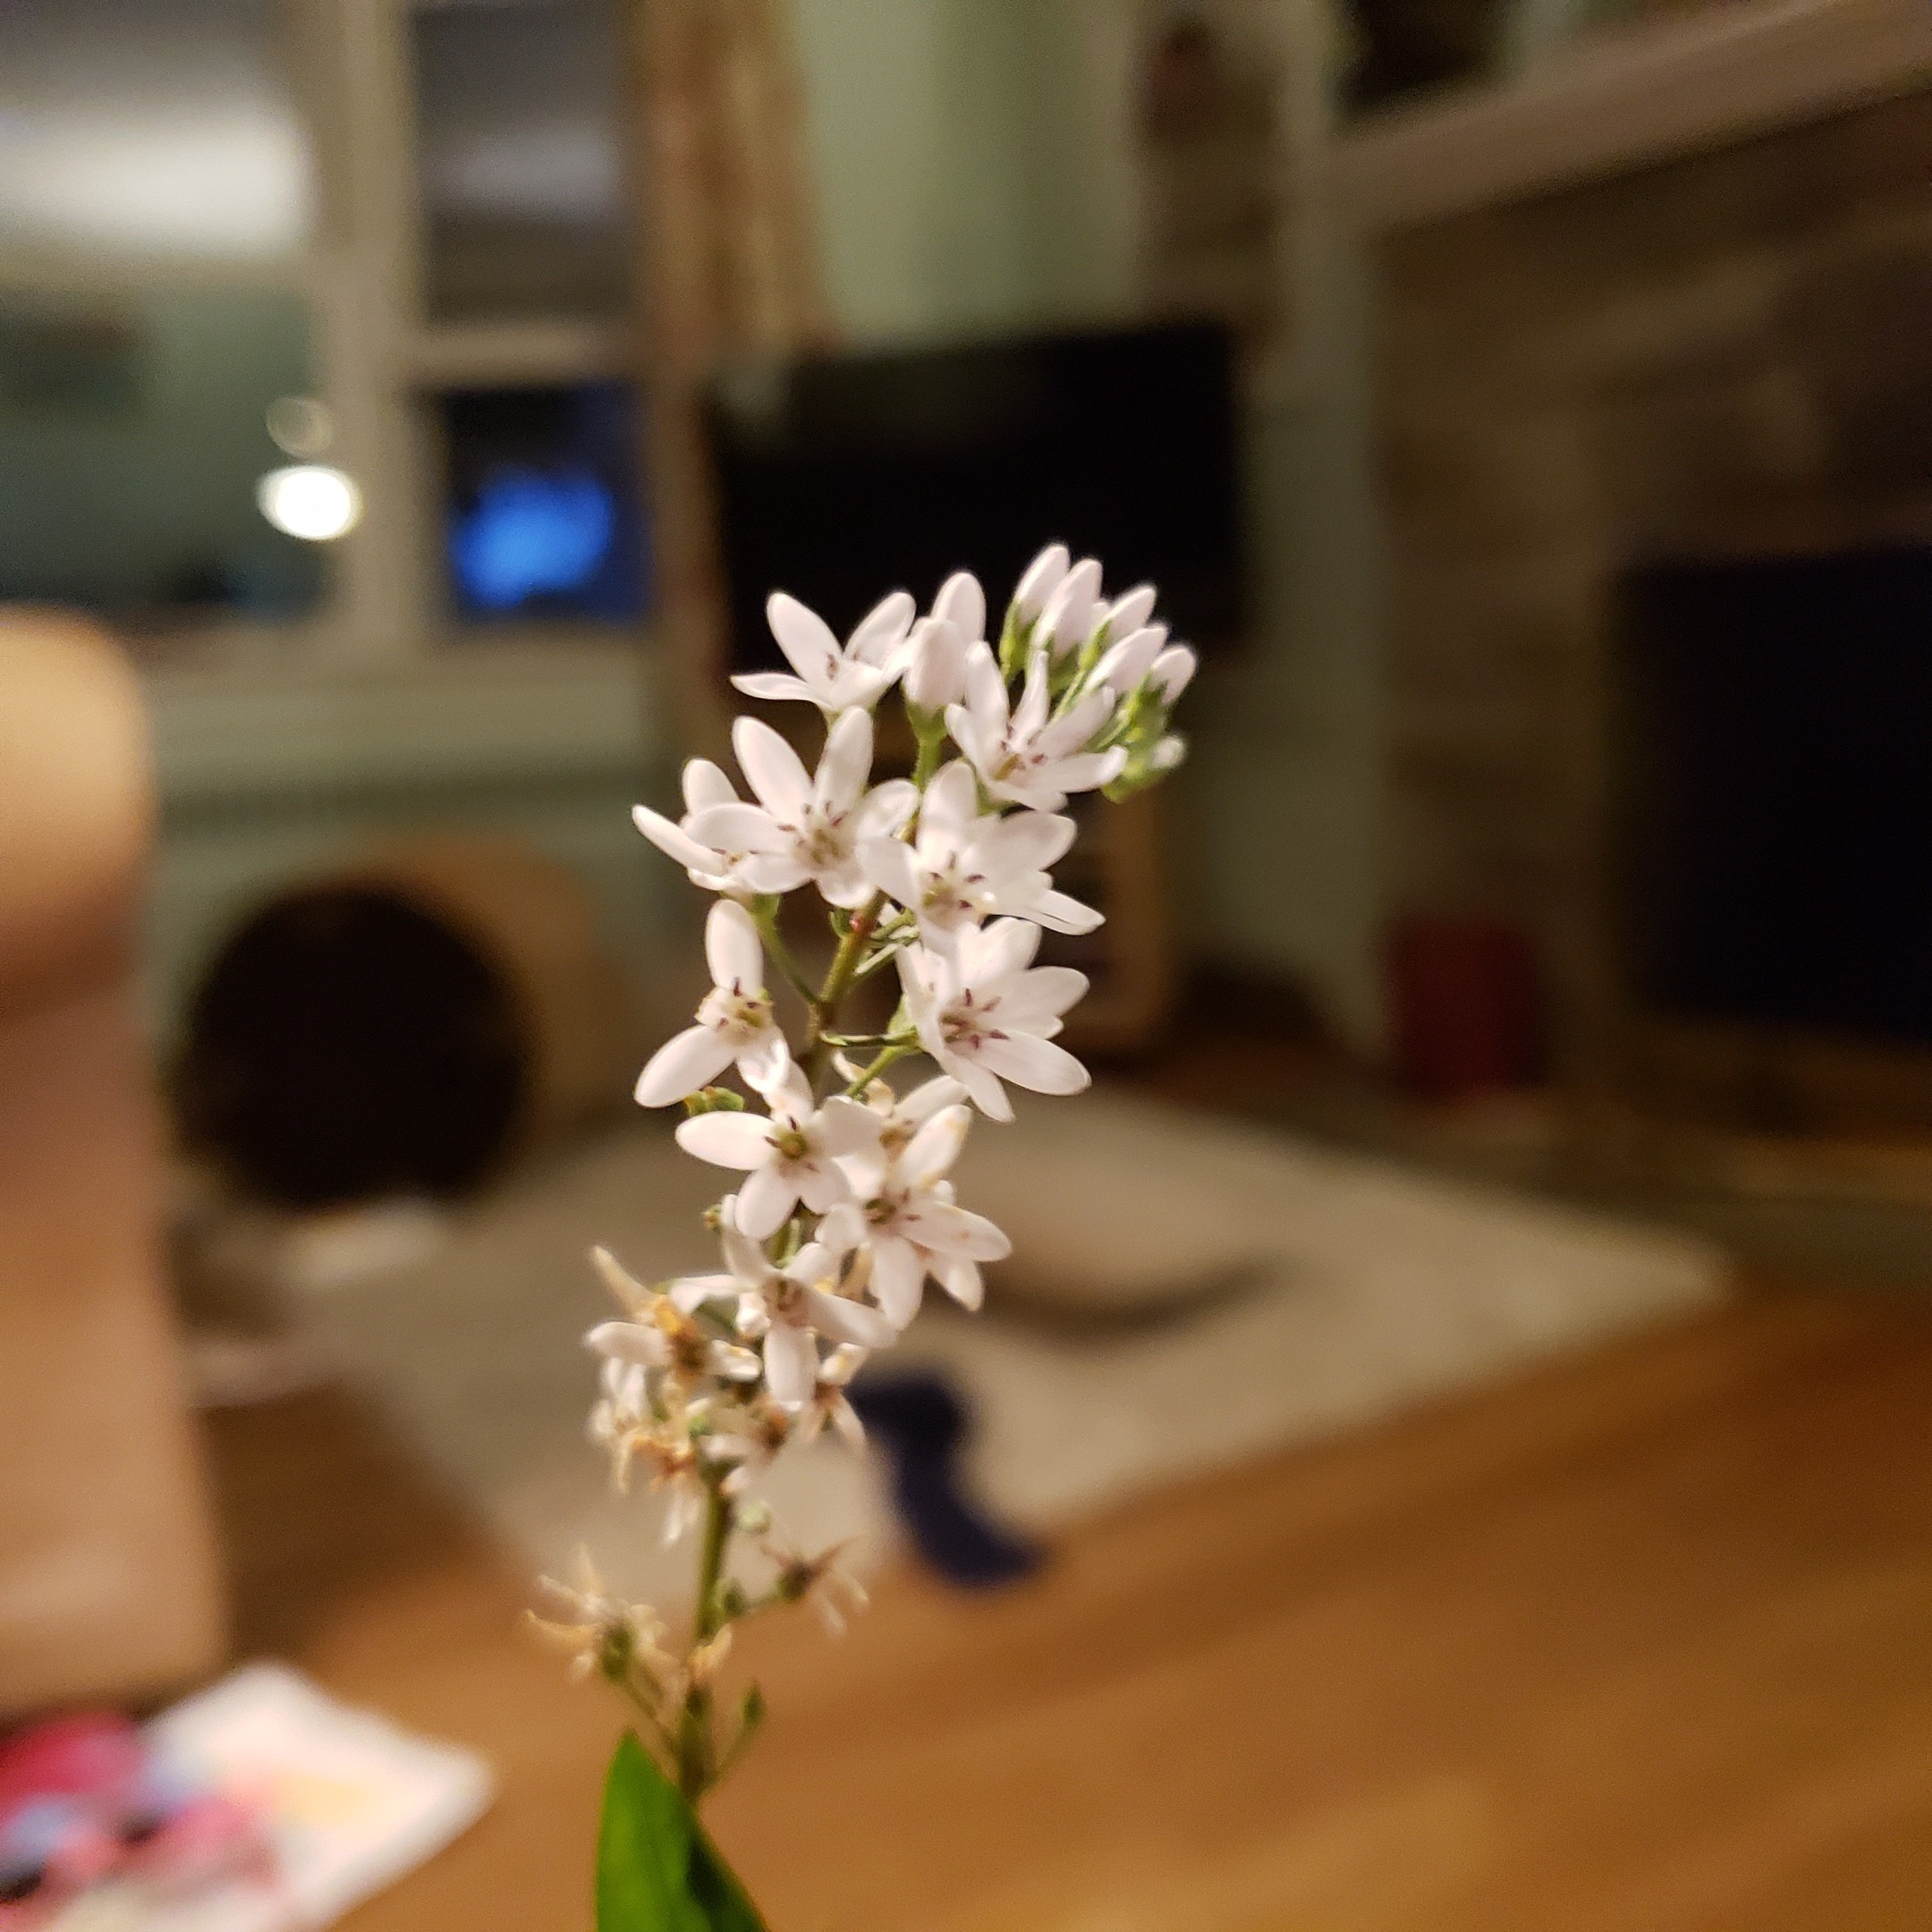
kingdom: Plantae
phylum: Tracheophyta
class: Magnoliopsida
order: Ericales
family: Primulaceae
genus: Lysimachia
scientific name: Lysimachia clethroides
